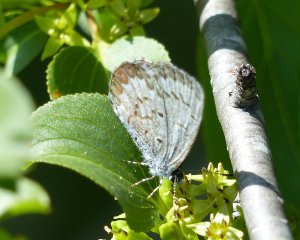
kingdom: Animalia
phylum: Arthropoda
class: Insecta
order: Lepidoptera
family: Lycaenidae
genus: Celastrina
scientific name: Celastrina lucia
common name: Northern Spring Azure
